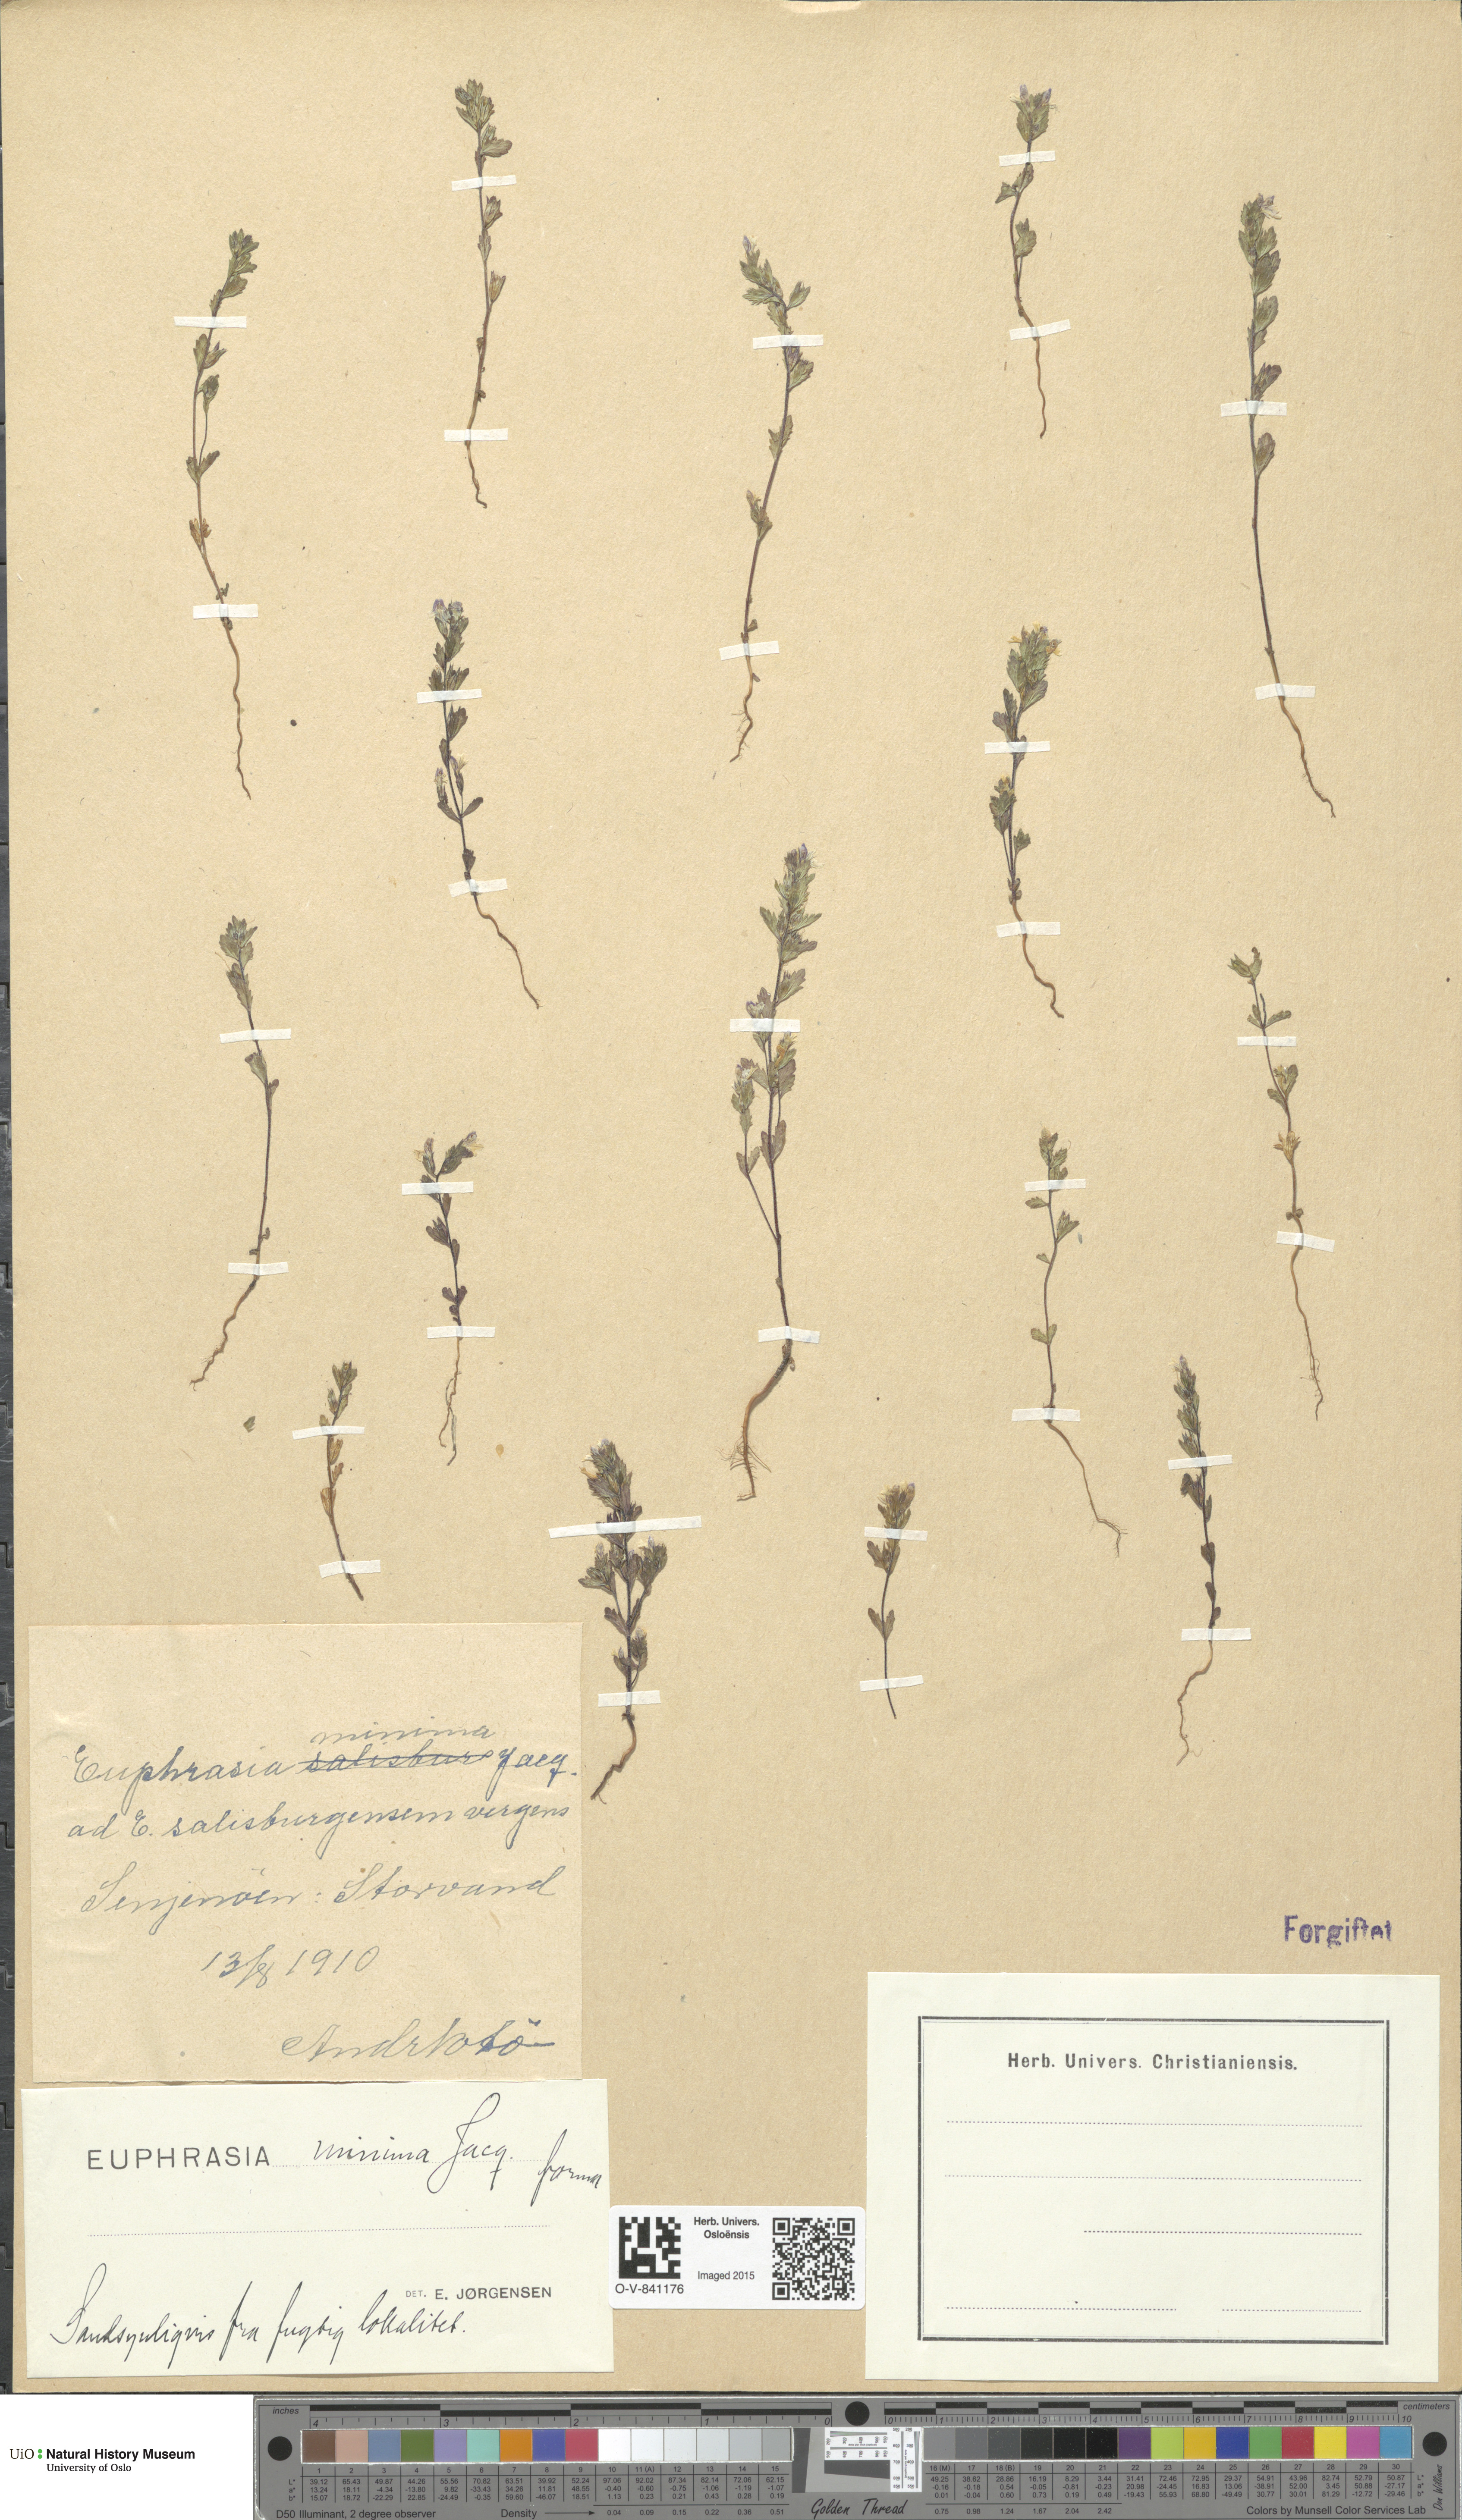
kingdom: Plantae
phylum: Tracheophyta
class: Magnoliopsida
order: Lamiales
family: Orobanchaceae
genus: Euphrasia
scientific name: Euphrasia wettsteinii
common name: Wettstein's eyebright
